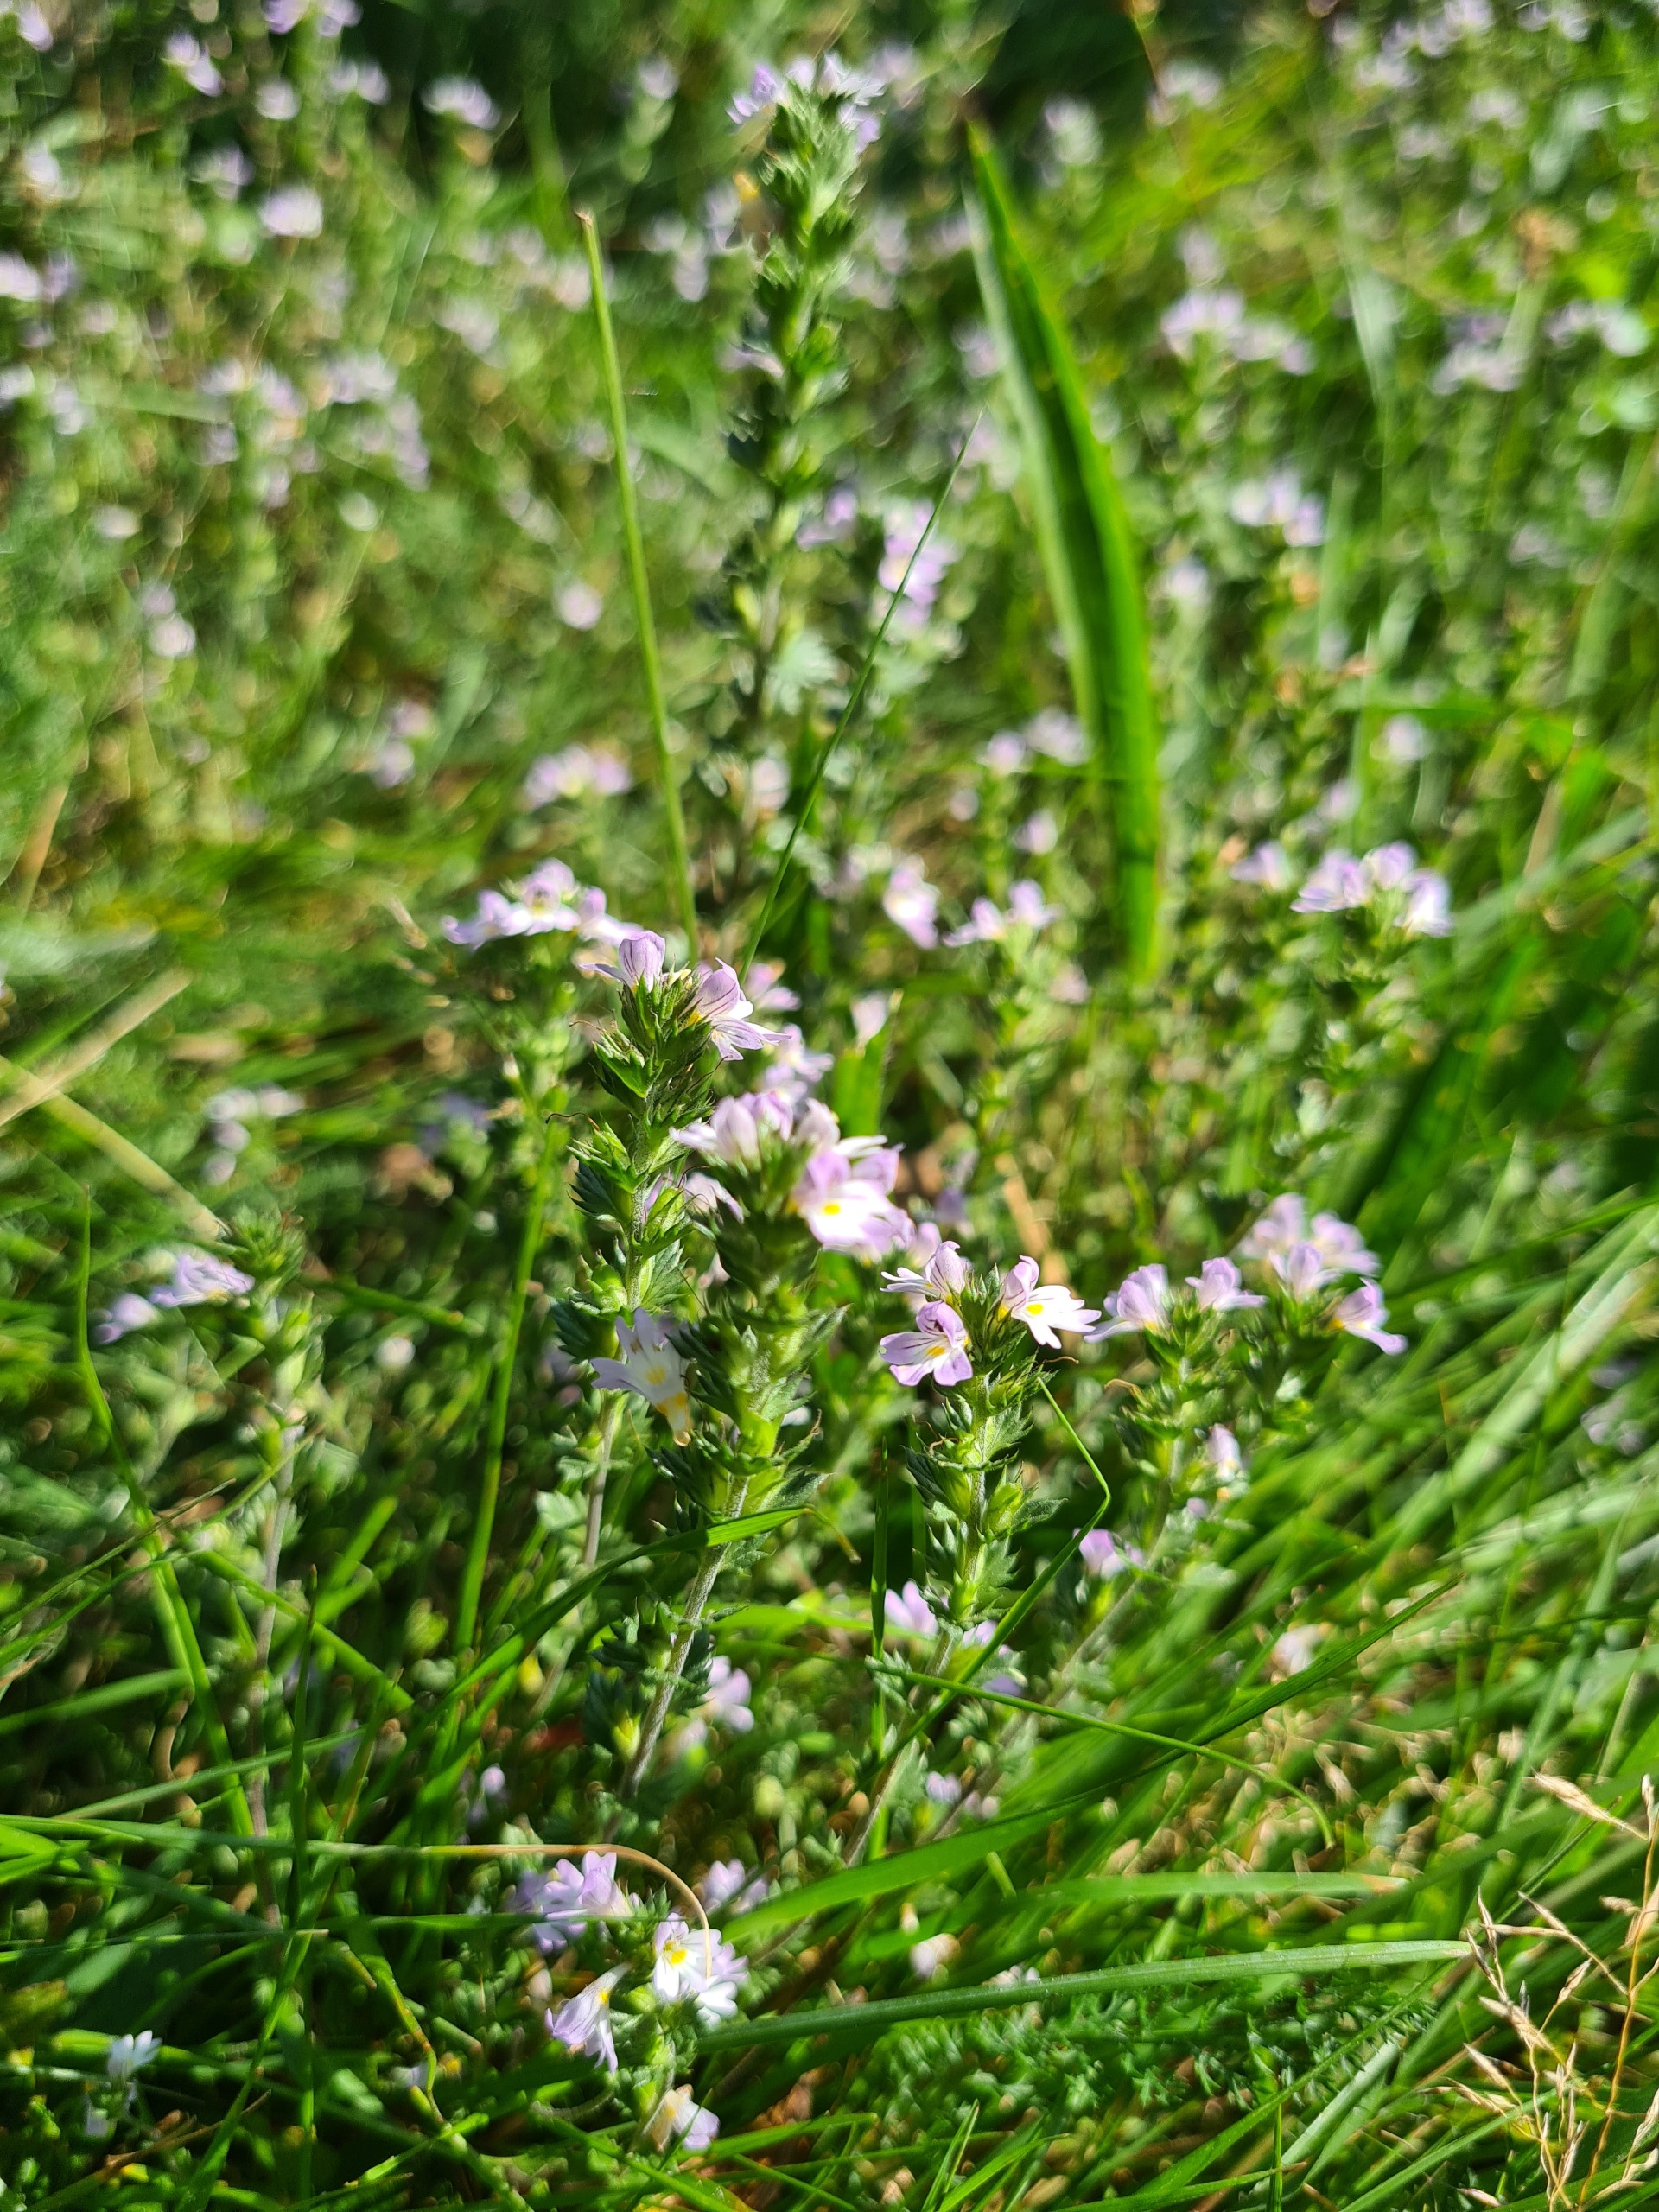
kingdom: Plantae
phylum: Tracheophyta
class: Magnoliopsida
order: Lamiales
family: Orobanchaceae
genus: Euphrasia
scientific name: Euphrasia vernalis
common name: Kirtel-øjentrøst
